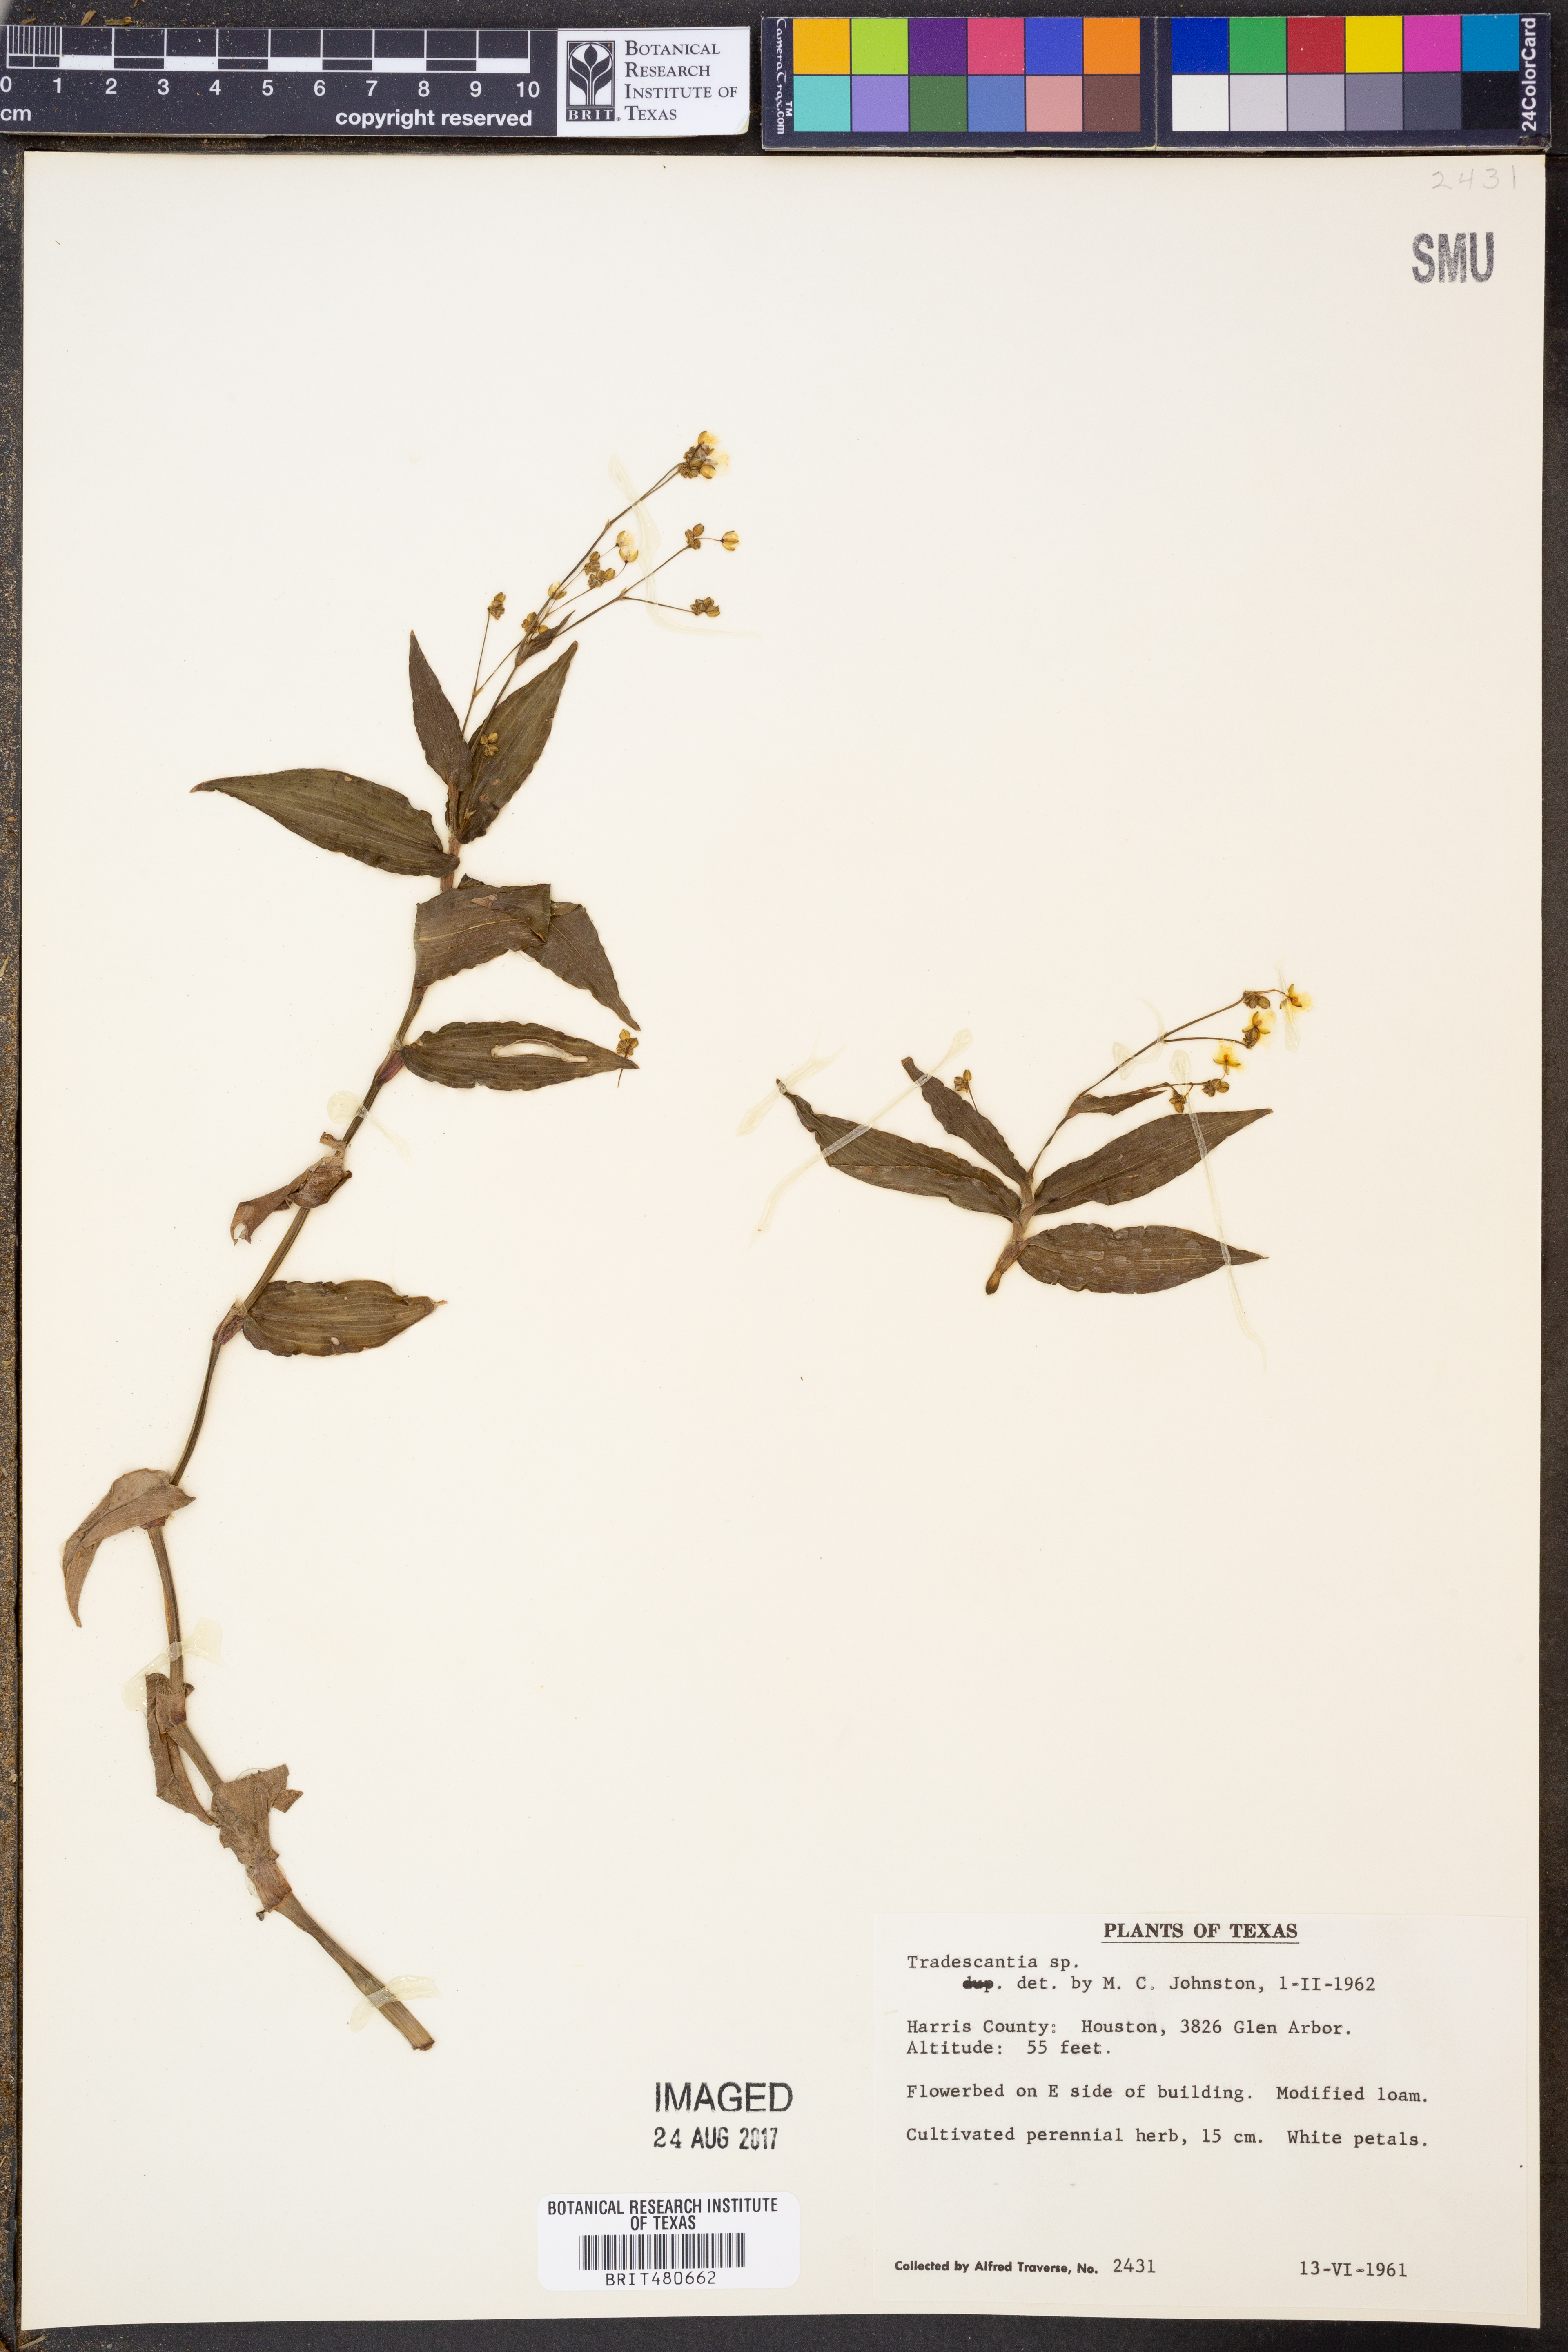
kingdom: Plantae
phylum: Tracheophyta
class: Liliopsida
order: Commelinales
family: Commelinaceae
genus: Tradescantia
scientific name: Tradescantia
